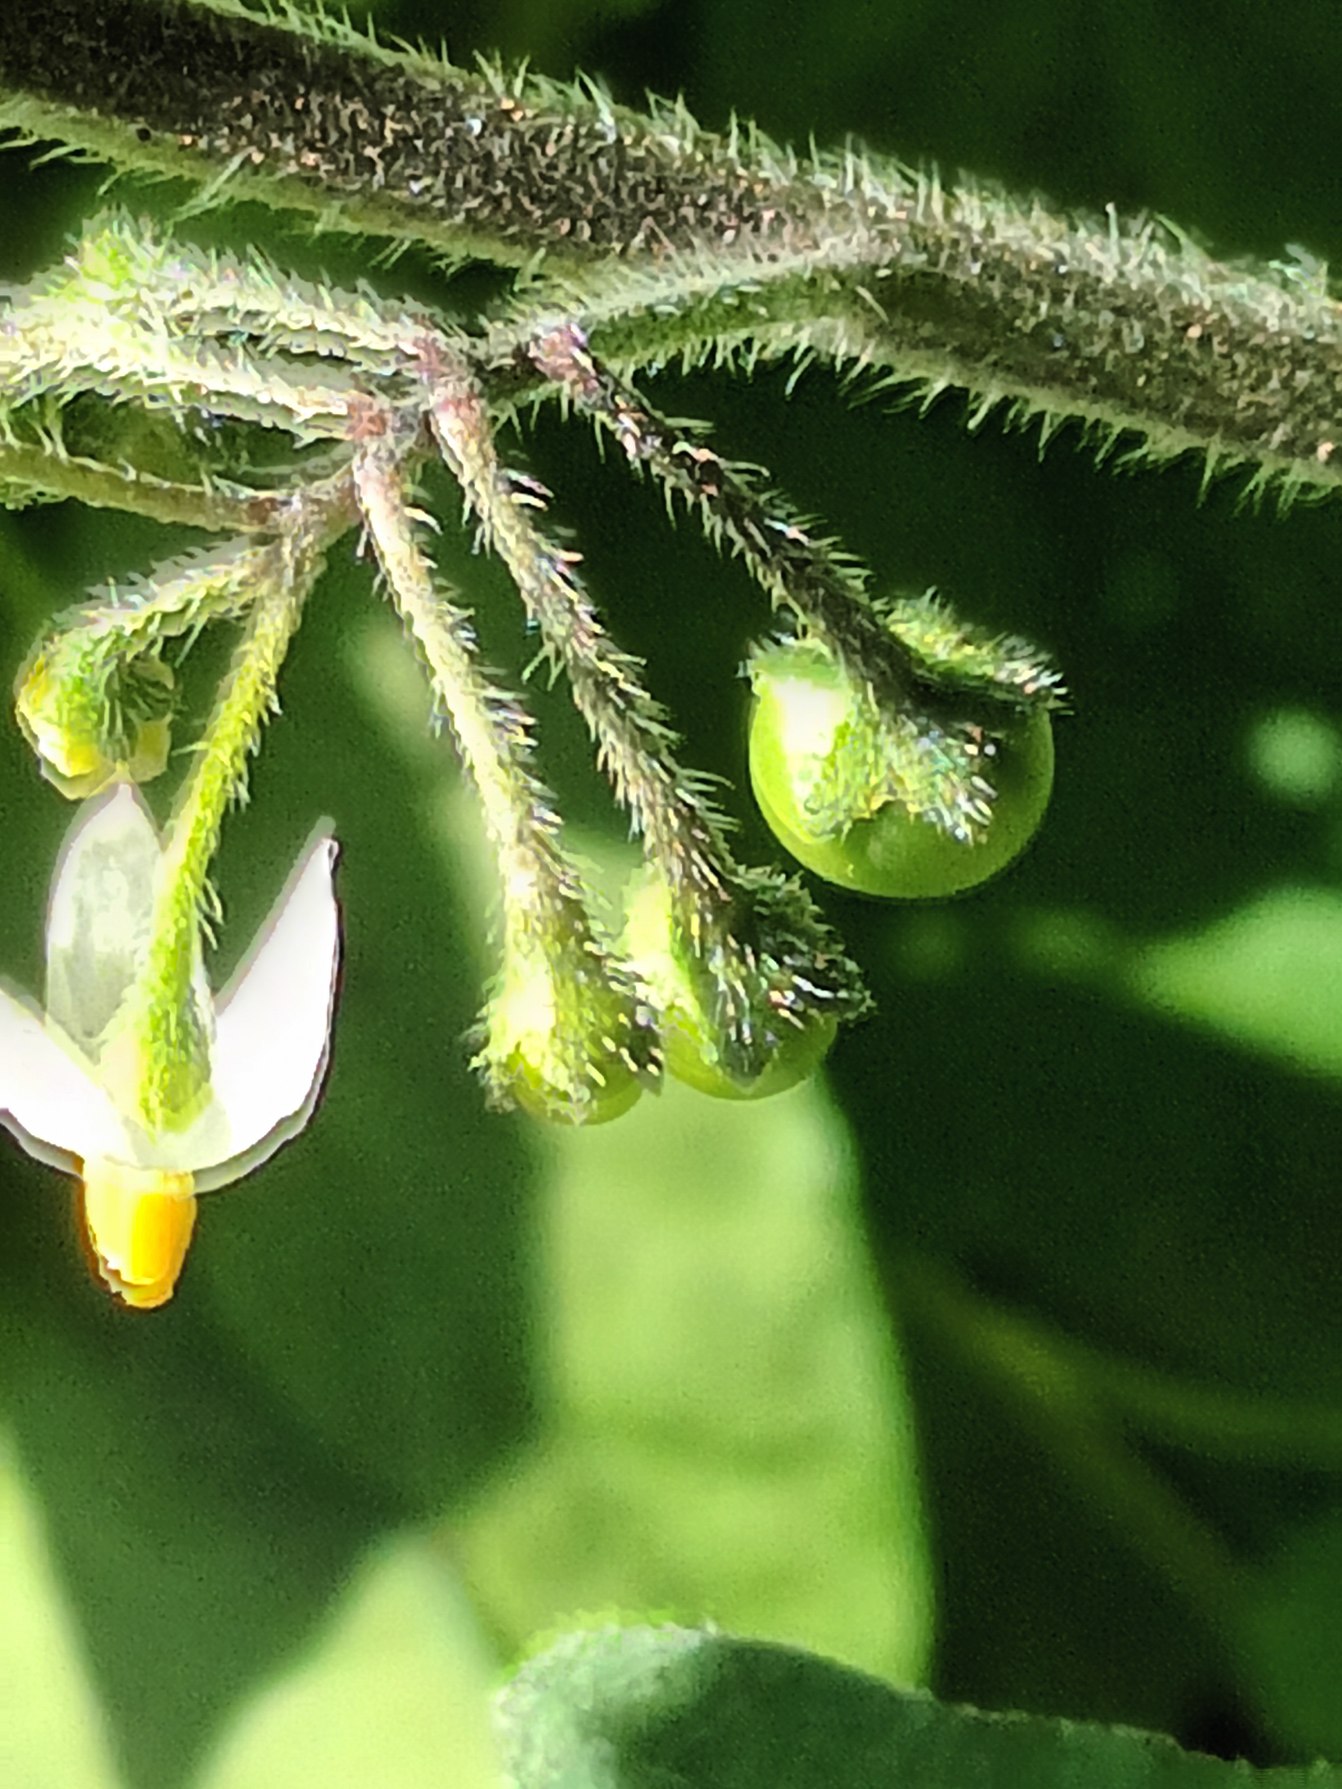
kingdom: Plantae
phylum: Tracheophyta
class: Magnoliopsida
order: Solanales
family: Solanaceae
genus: Solanum
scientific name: Solanum decipiens
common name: Kirtel-natskygge
